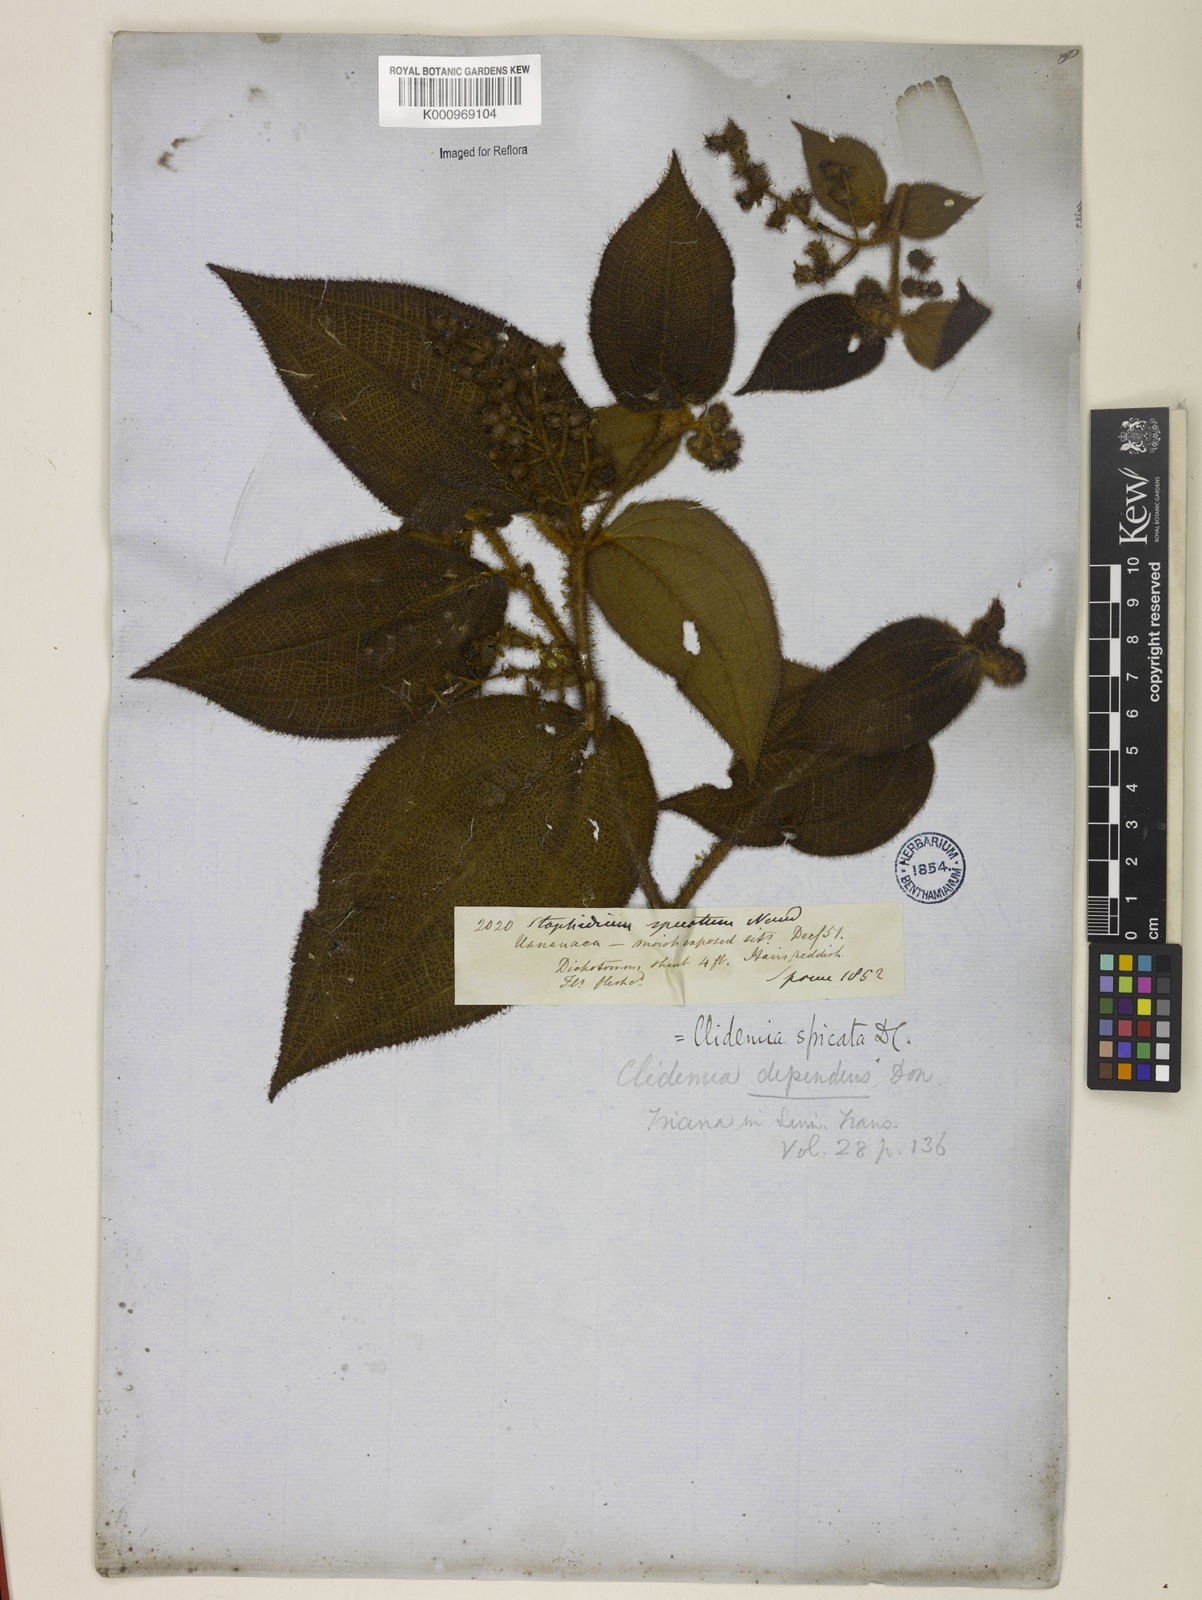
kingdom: Plantae
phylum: Tracheophyta
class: Magnoliopsida
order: Myrtales
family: Melastomataceae
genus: Miconia
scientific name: Miconia dependens
